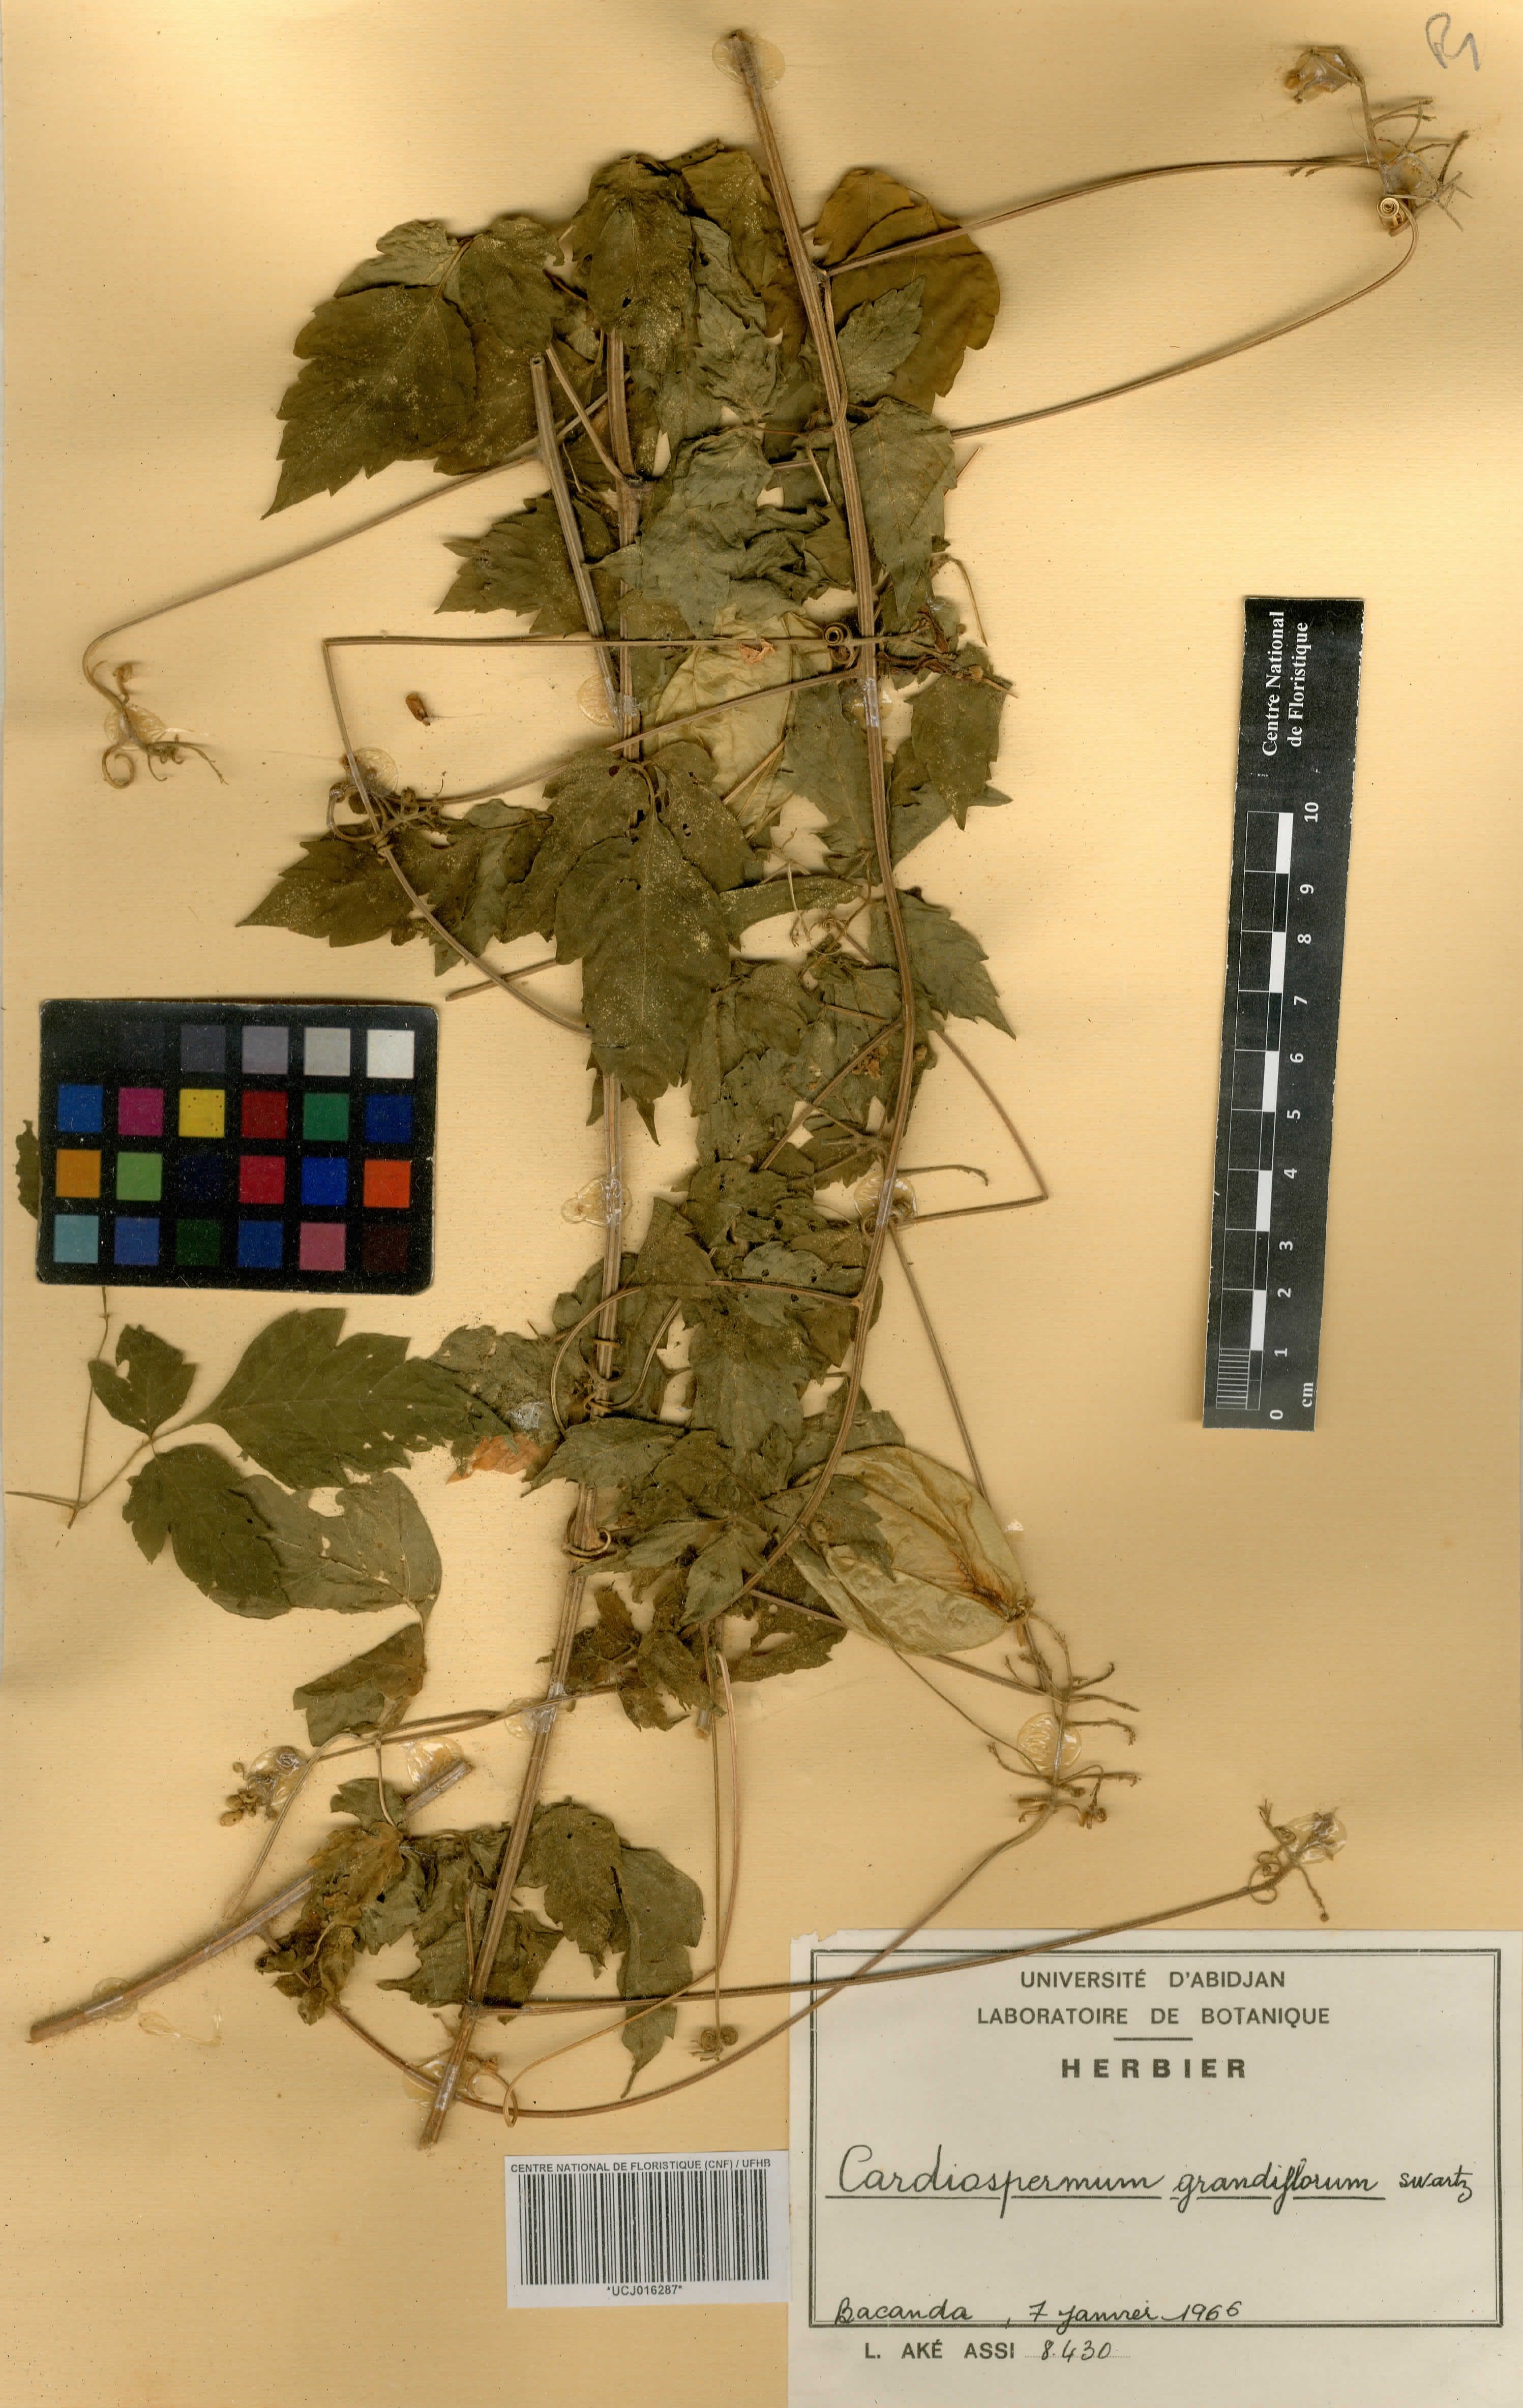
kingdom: Plantae
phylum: Tracheophyta
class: Magnoliopsida
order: Sapindales
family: Sapindaceae
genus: Cardiospermum
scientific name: Cardiospermum grandiflorum
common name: Balloon vine
